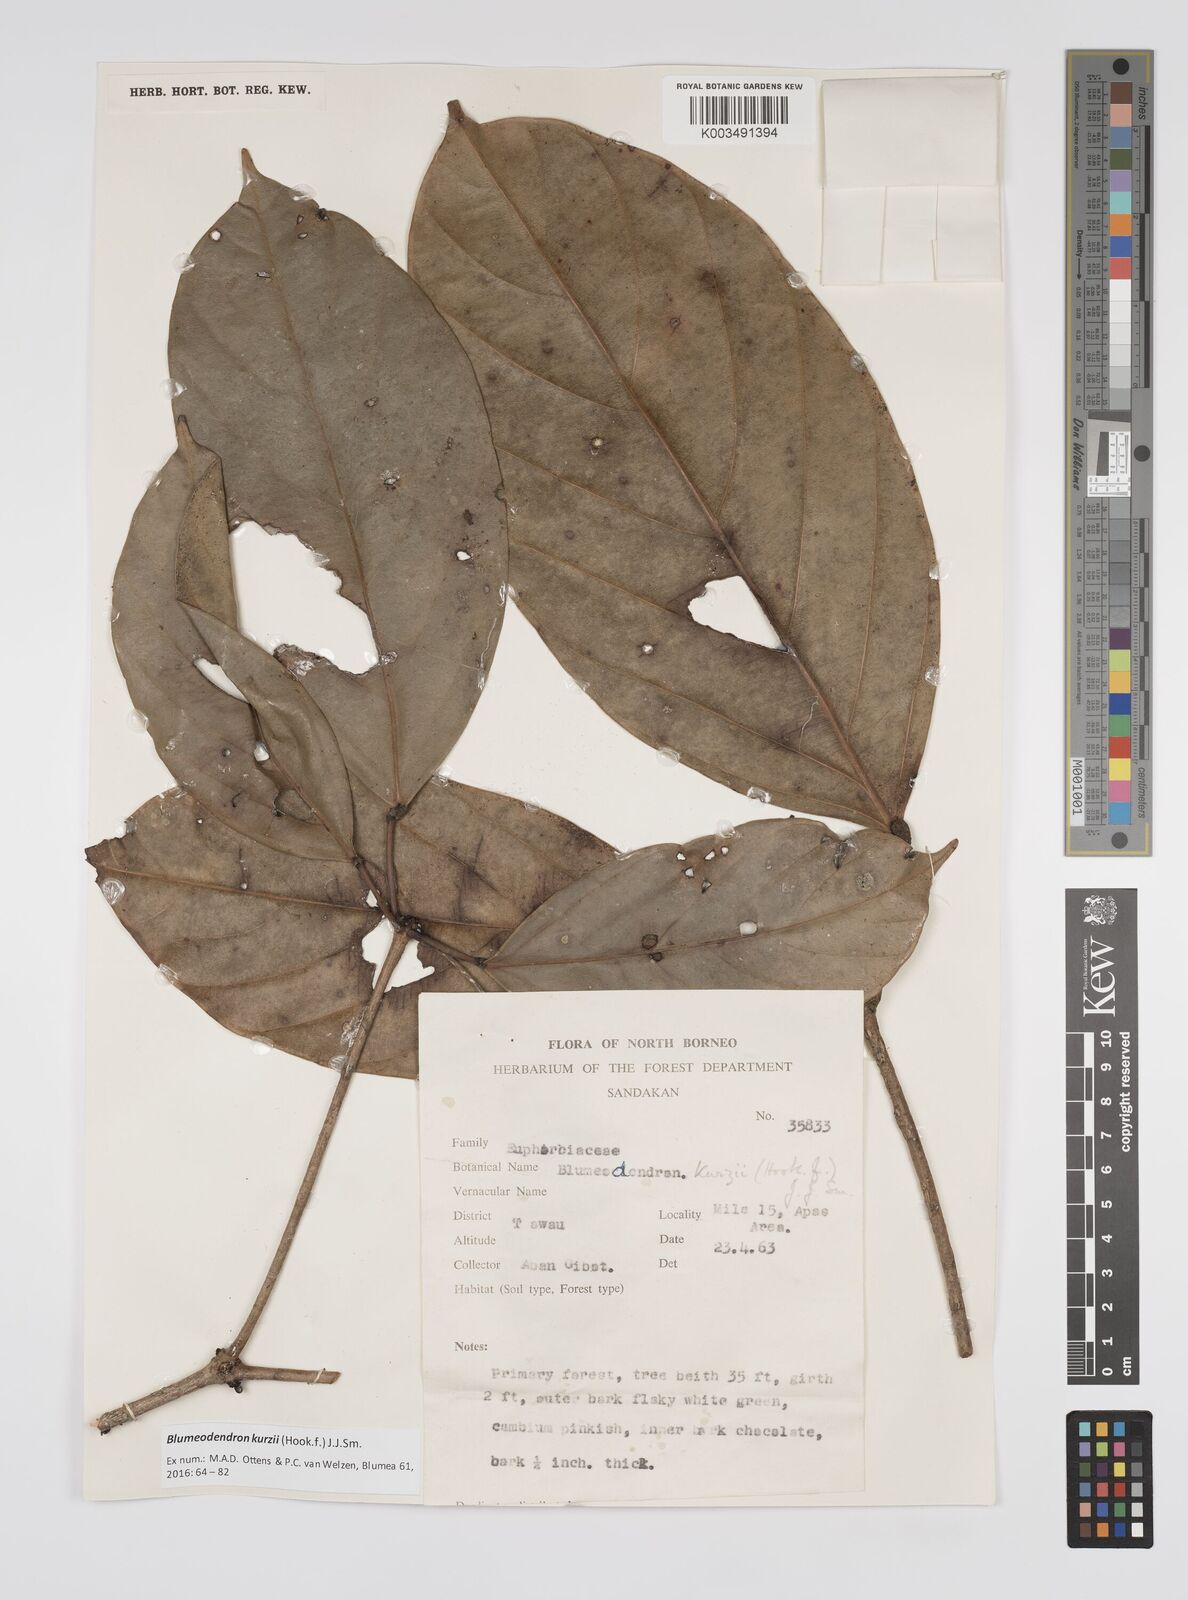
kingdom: Plantae
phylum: Tracheophyta
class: Magnoliopsida
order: Malpighiales
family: Euphorbiaceae
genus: Blumeodendron
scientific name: Blumeodendron kurzii
